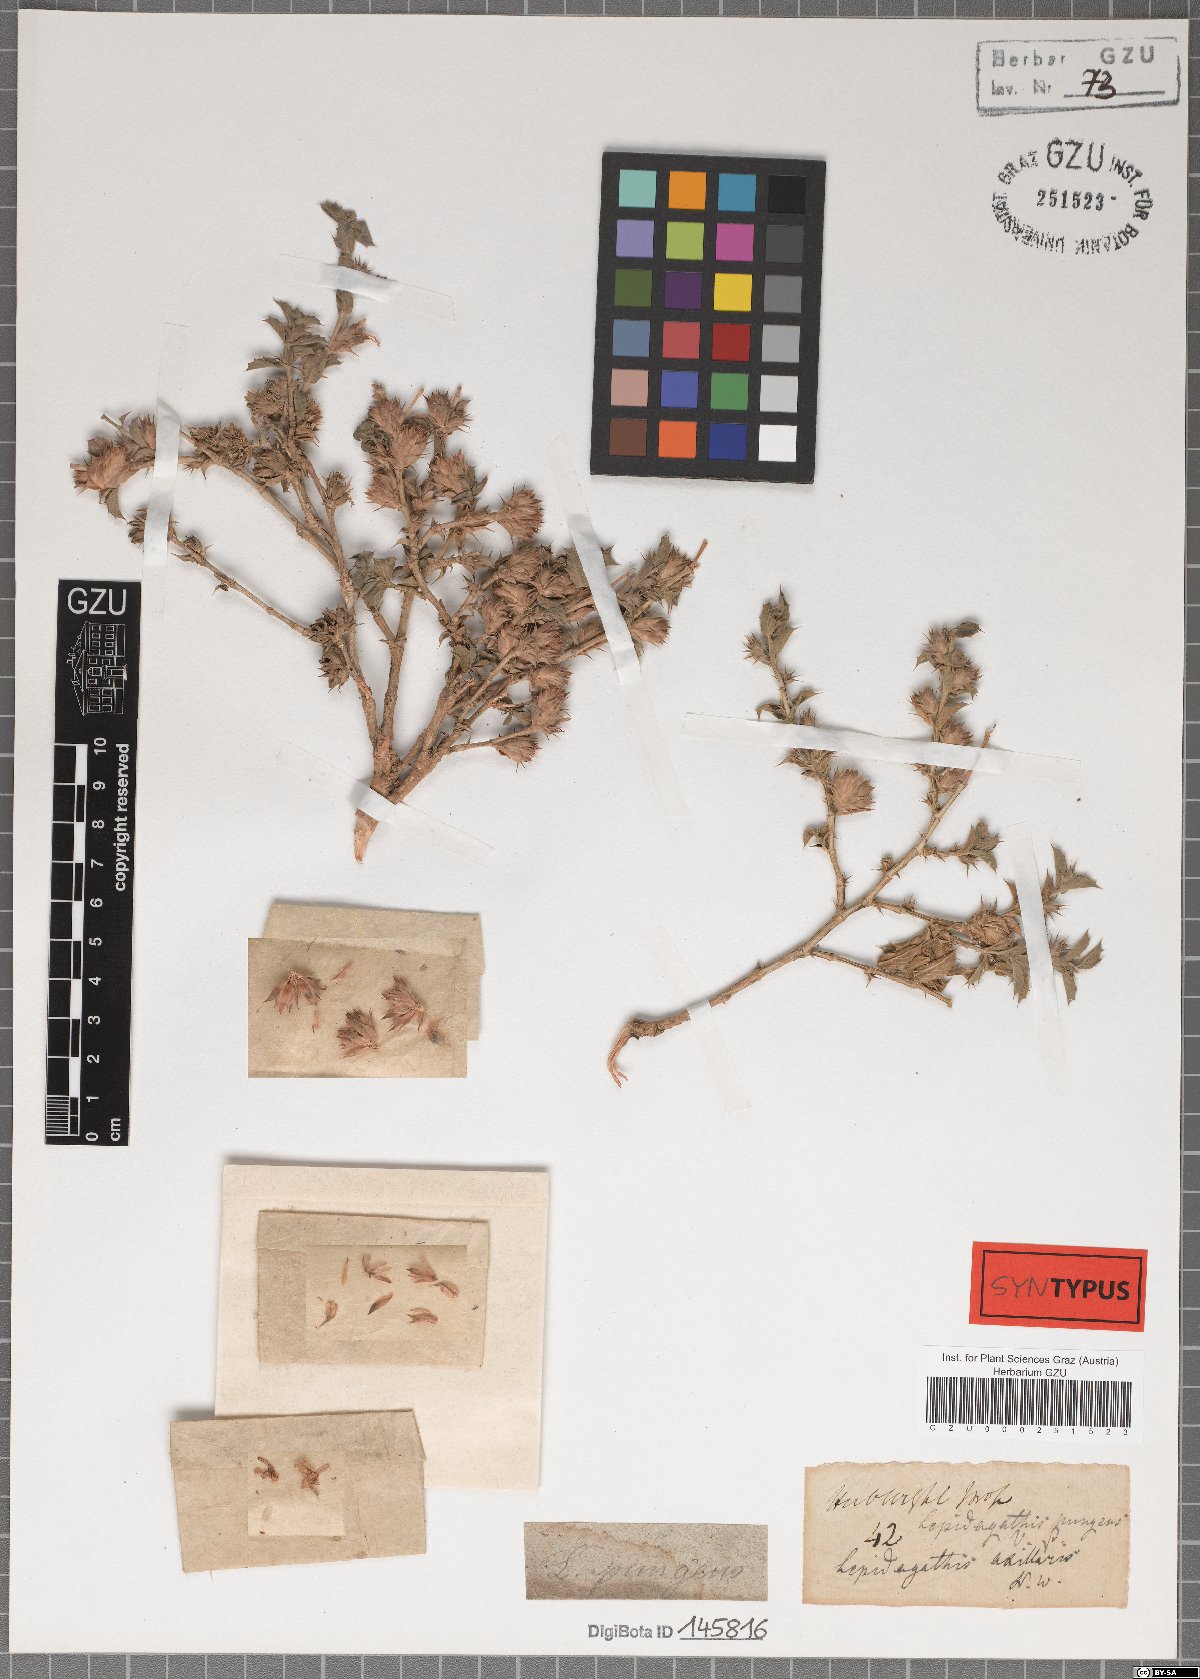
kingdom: Plantae
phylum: Tracheophyta
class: Magnoliopsida
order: Lamiales
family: Acanthaceae
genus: Lepidagathis
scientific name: Lepidagathis pungens
